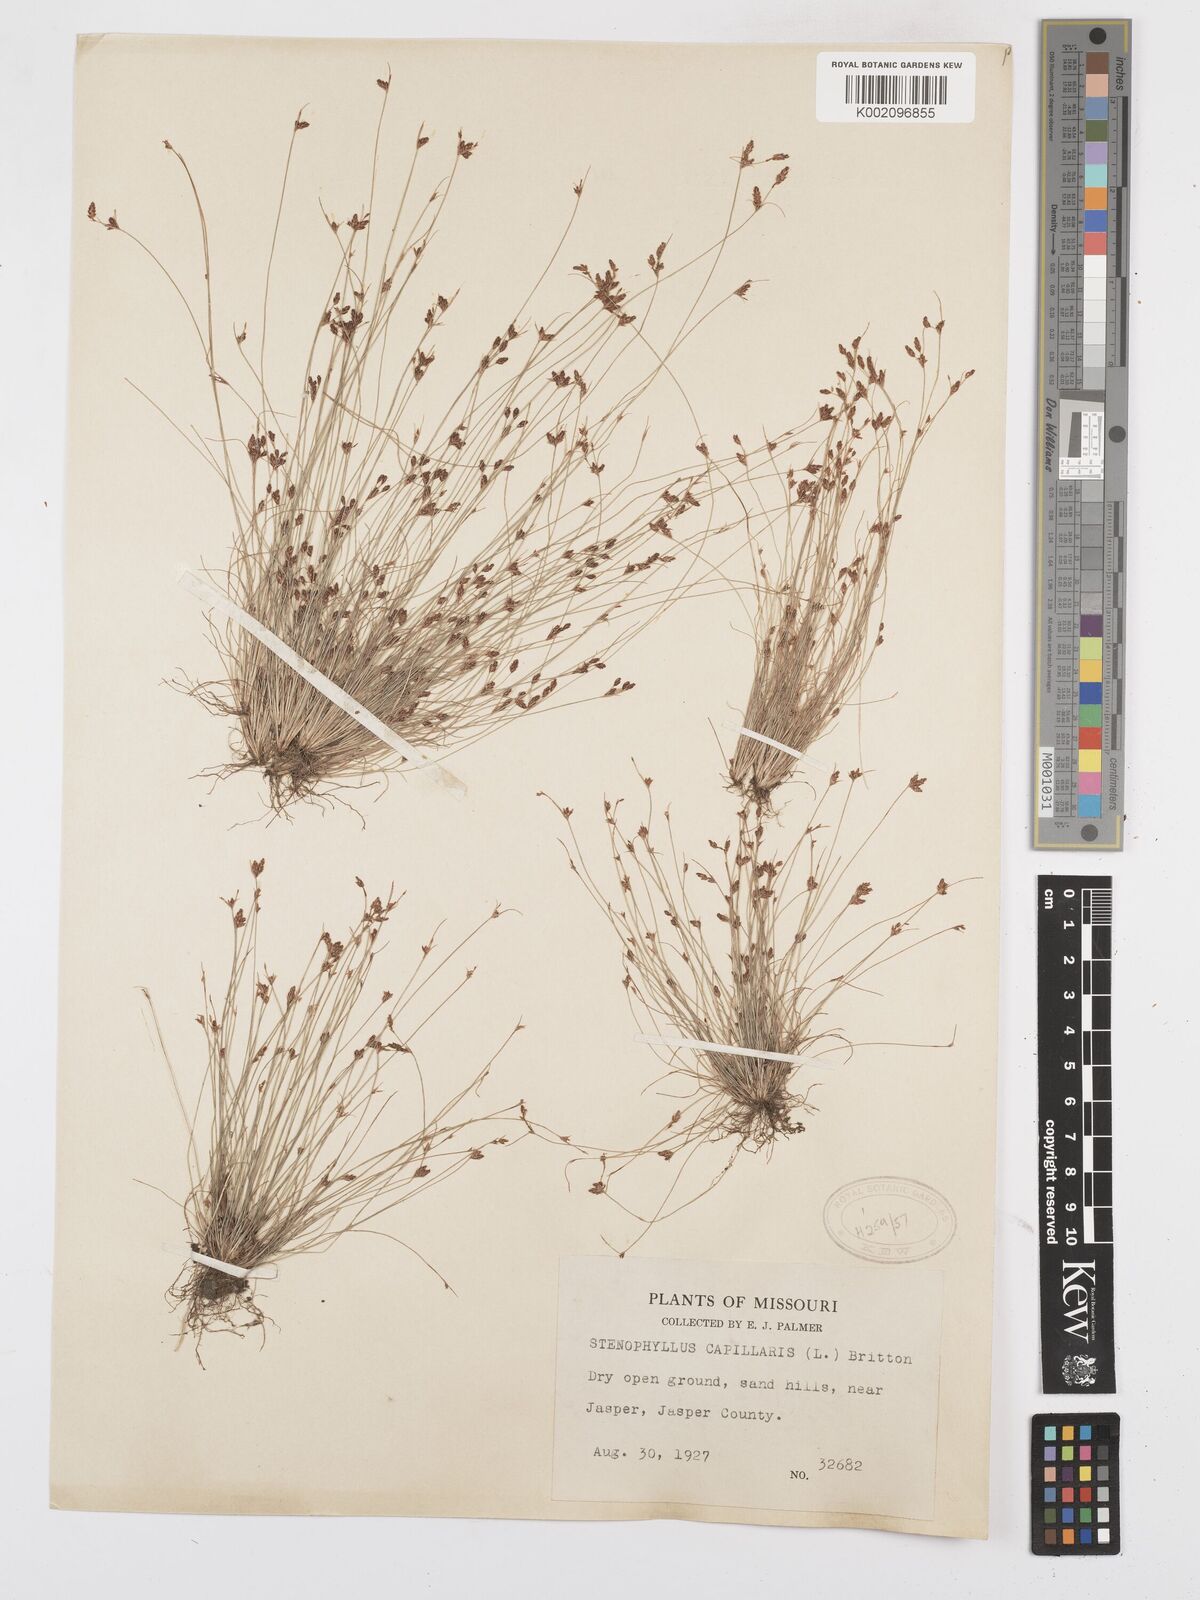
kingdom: Plantae
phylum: Tracheophyta
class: Liliopsida
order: Poales
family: Cyperaceae
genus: Bulbostylis
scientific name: Bulbostylis capillaris
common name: Densetuft hairsedge
